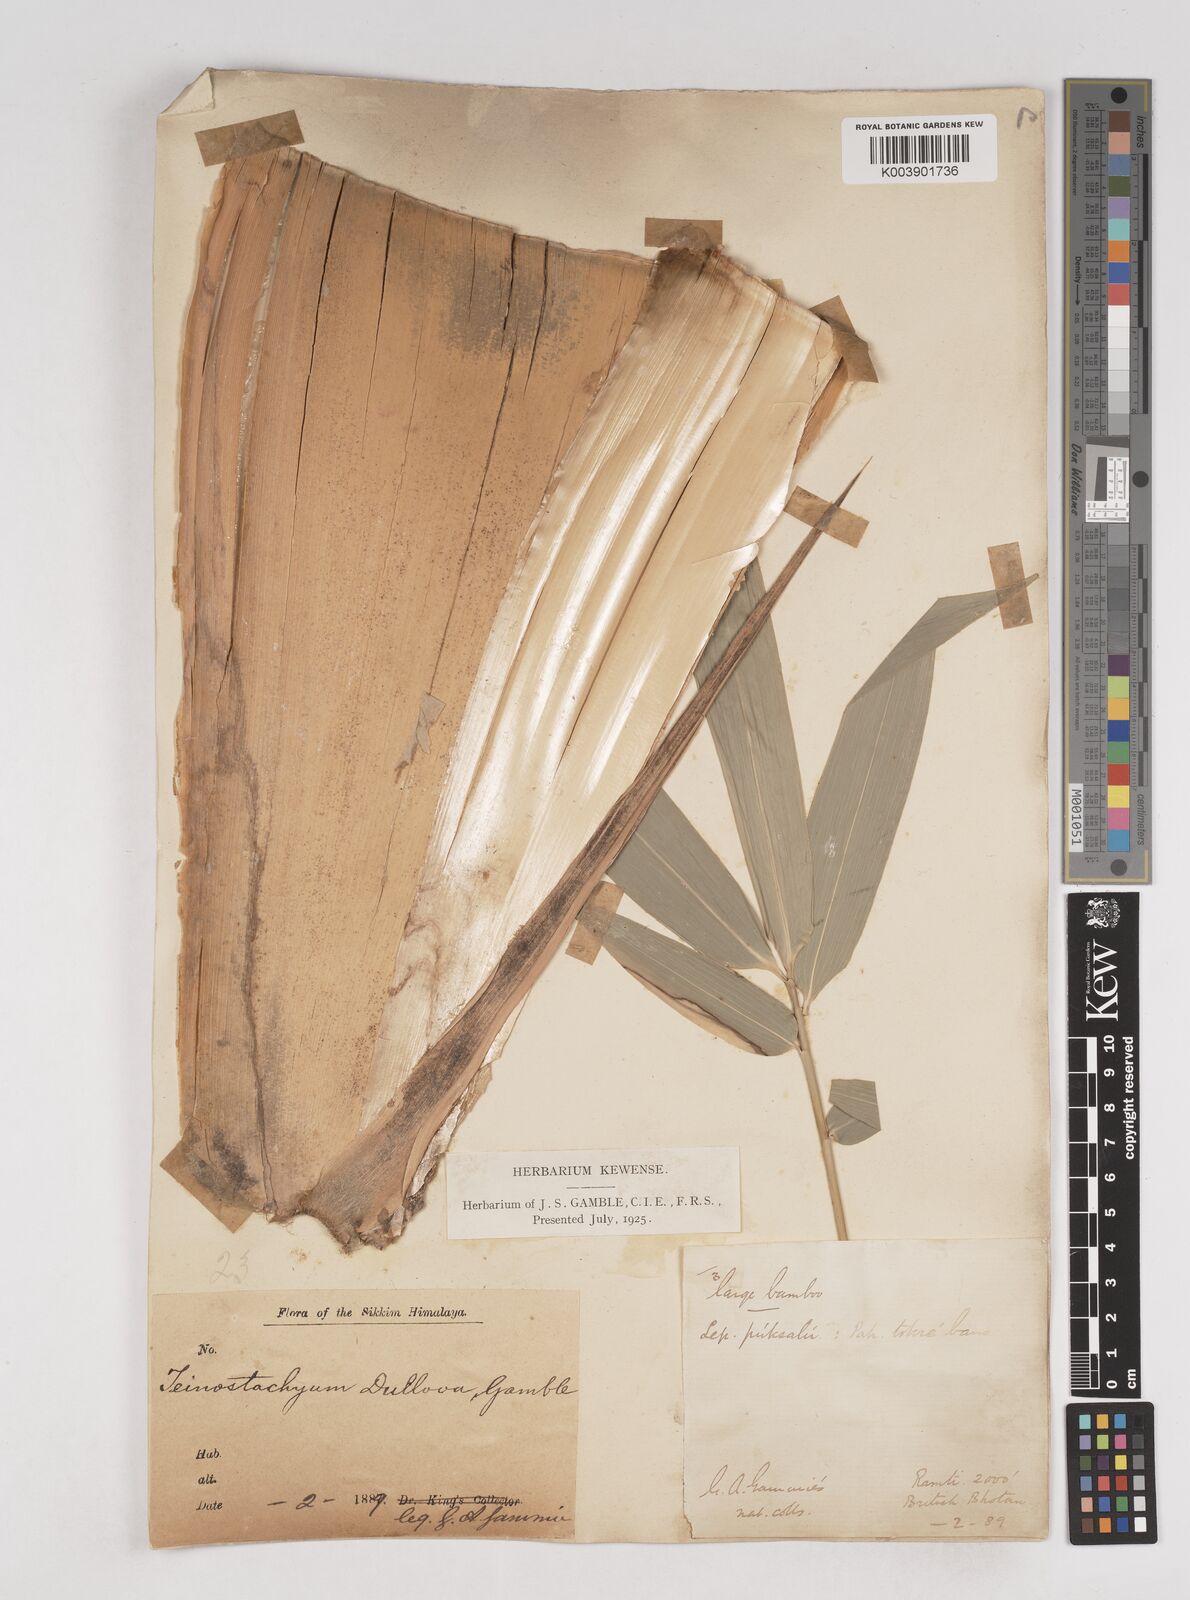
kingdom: Plantae
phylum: Tracheophyta
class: Liliopsida
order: Poales
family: Poaceae
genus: Schizostachyum
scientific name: Schizostachyum dullooa
